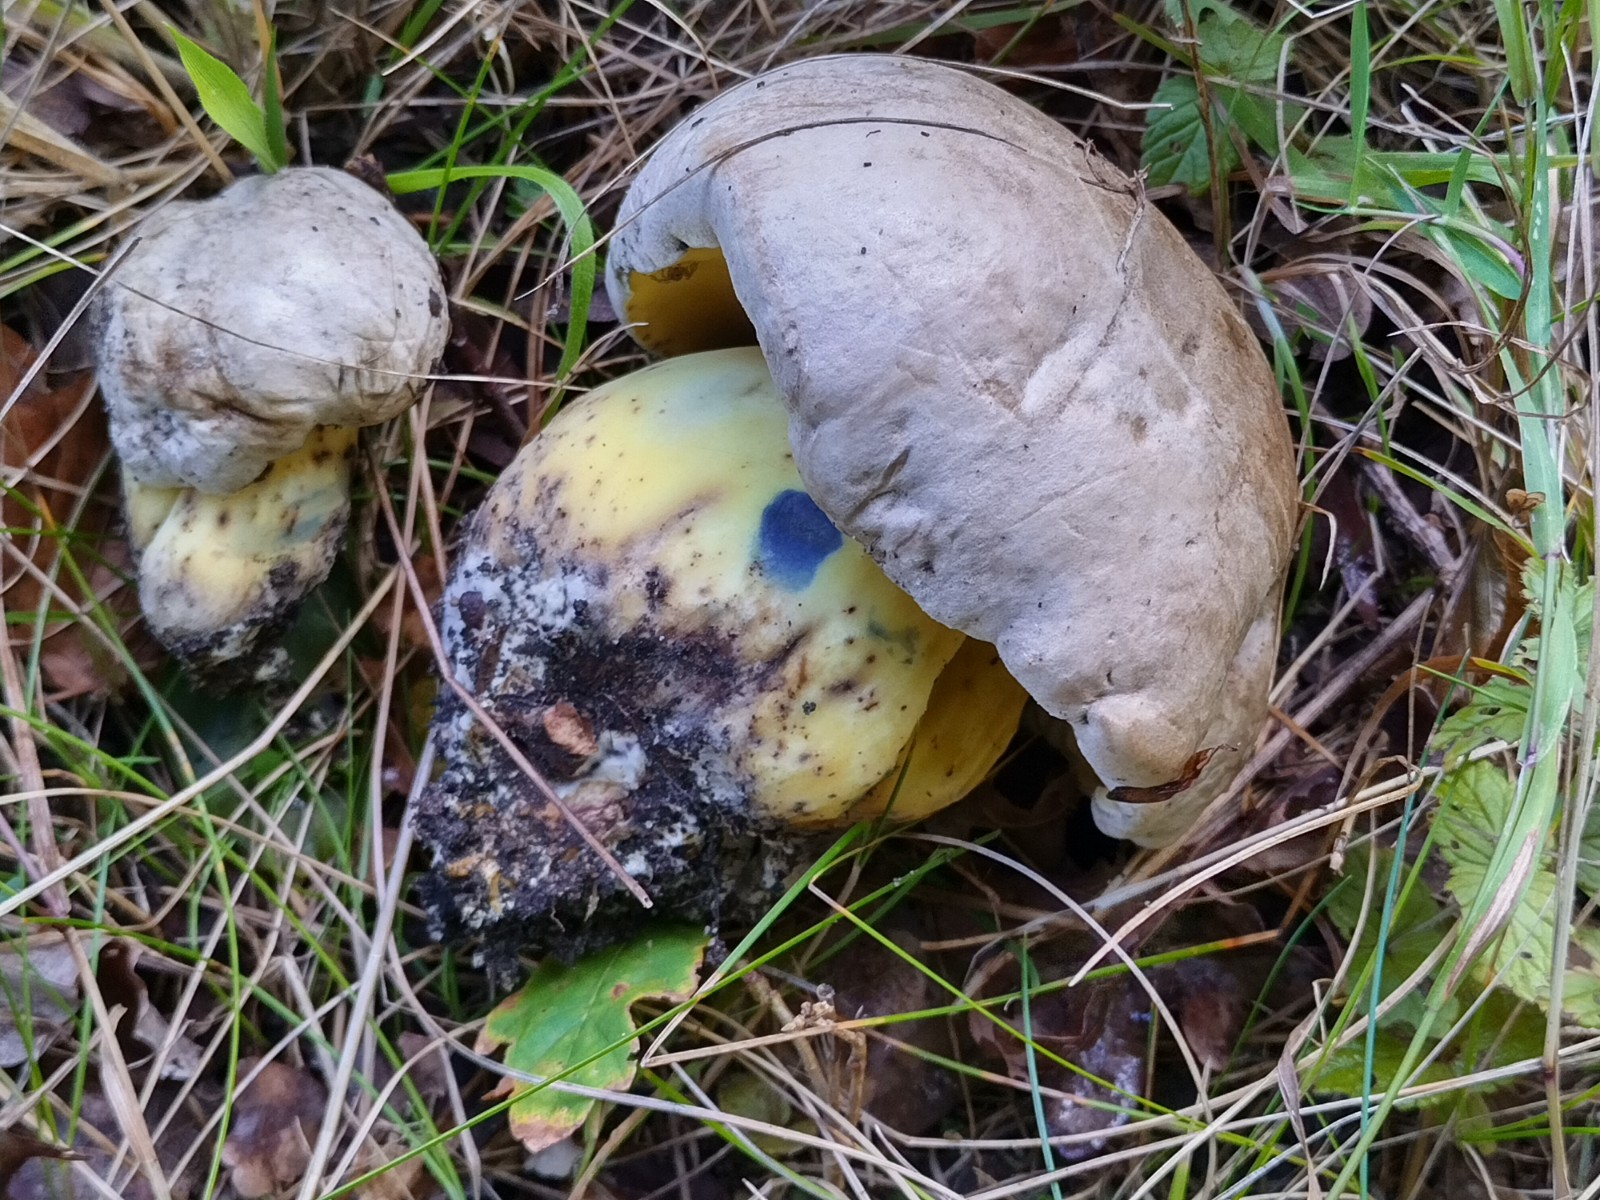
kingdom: Fungi
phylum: Basidiomycota
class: Agaricomycetes
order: Boletales
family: Boletaceae
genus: Caloboletus
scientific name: Caloboletus radicans
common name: rod-rørhat
